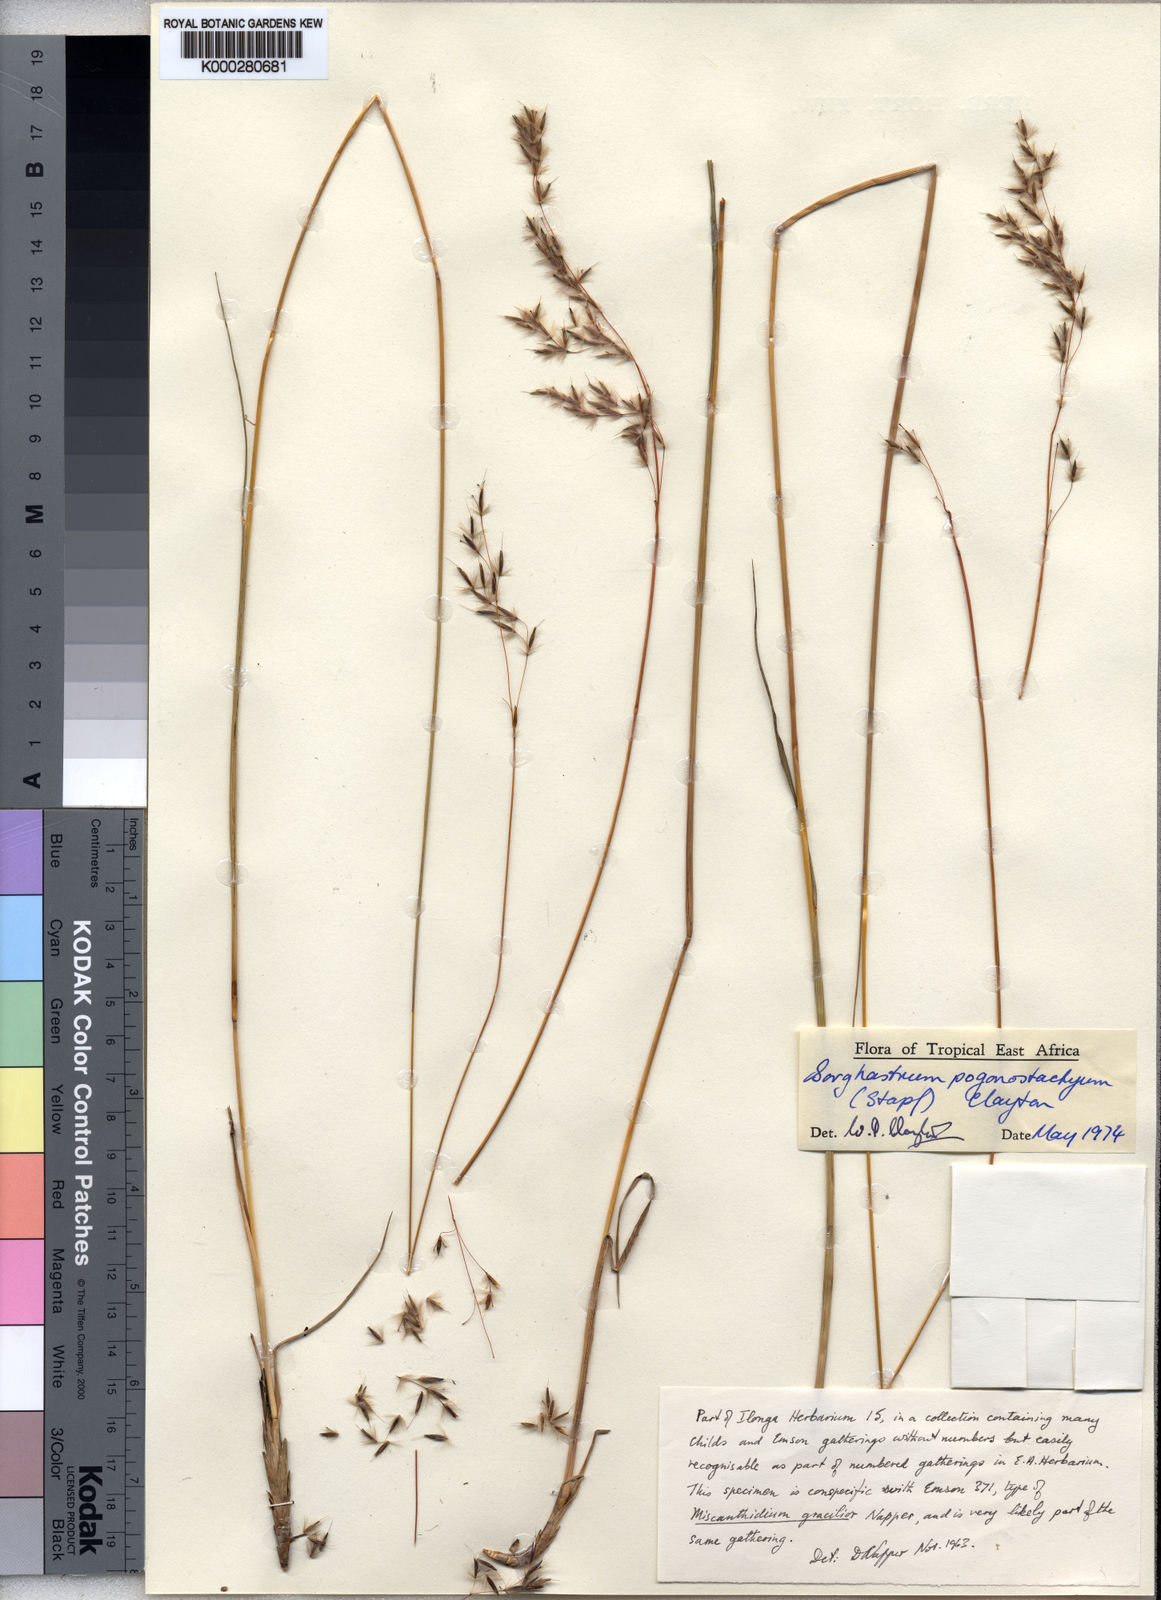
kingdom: Plantae
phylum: Tracheophyta
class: Liliopsida
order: Poales
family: Poaceae
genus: Sorghastrum
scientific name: Sorghastrum pogonostachyum
